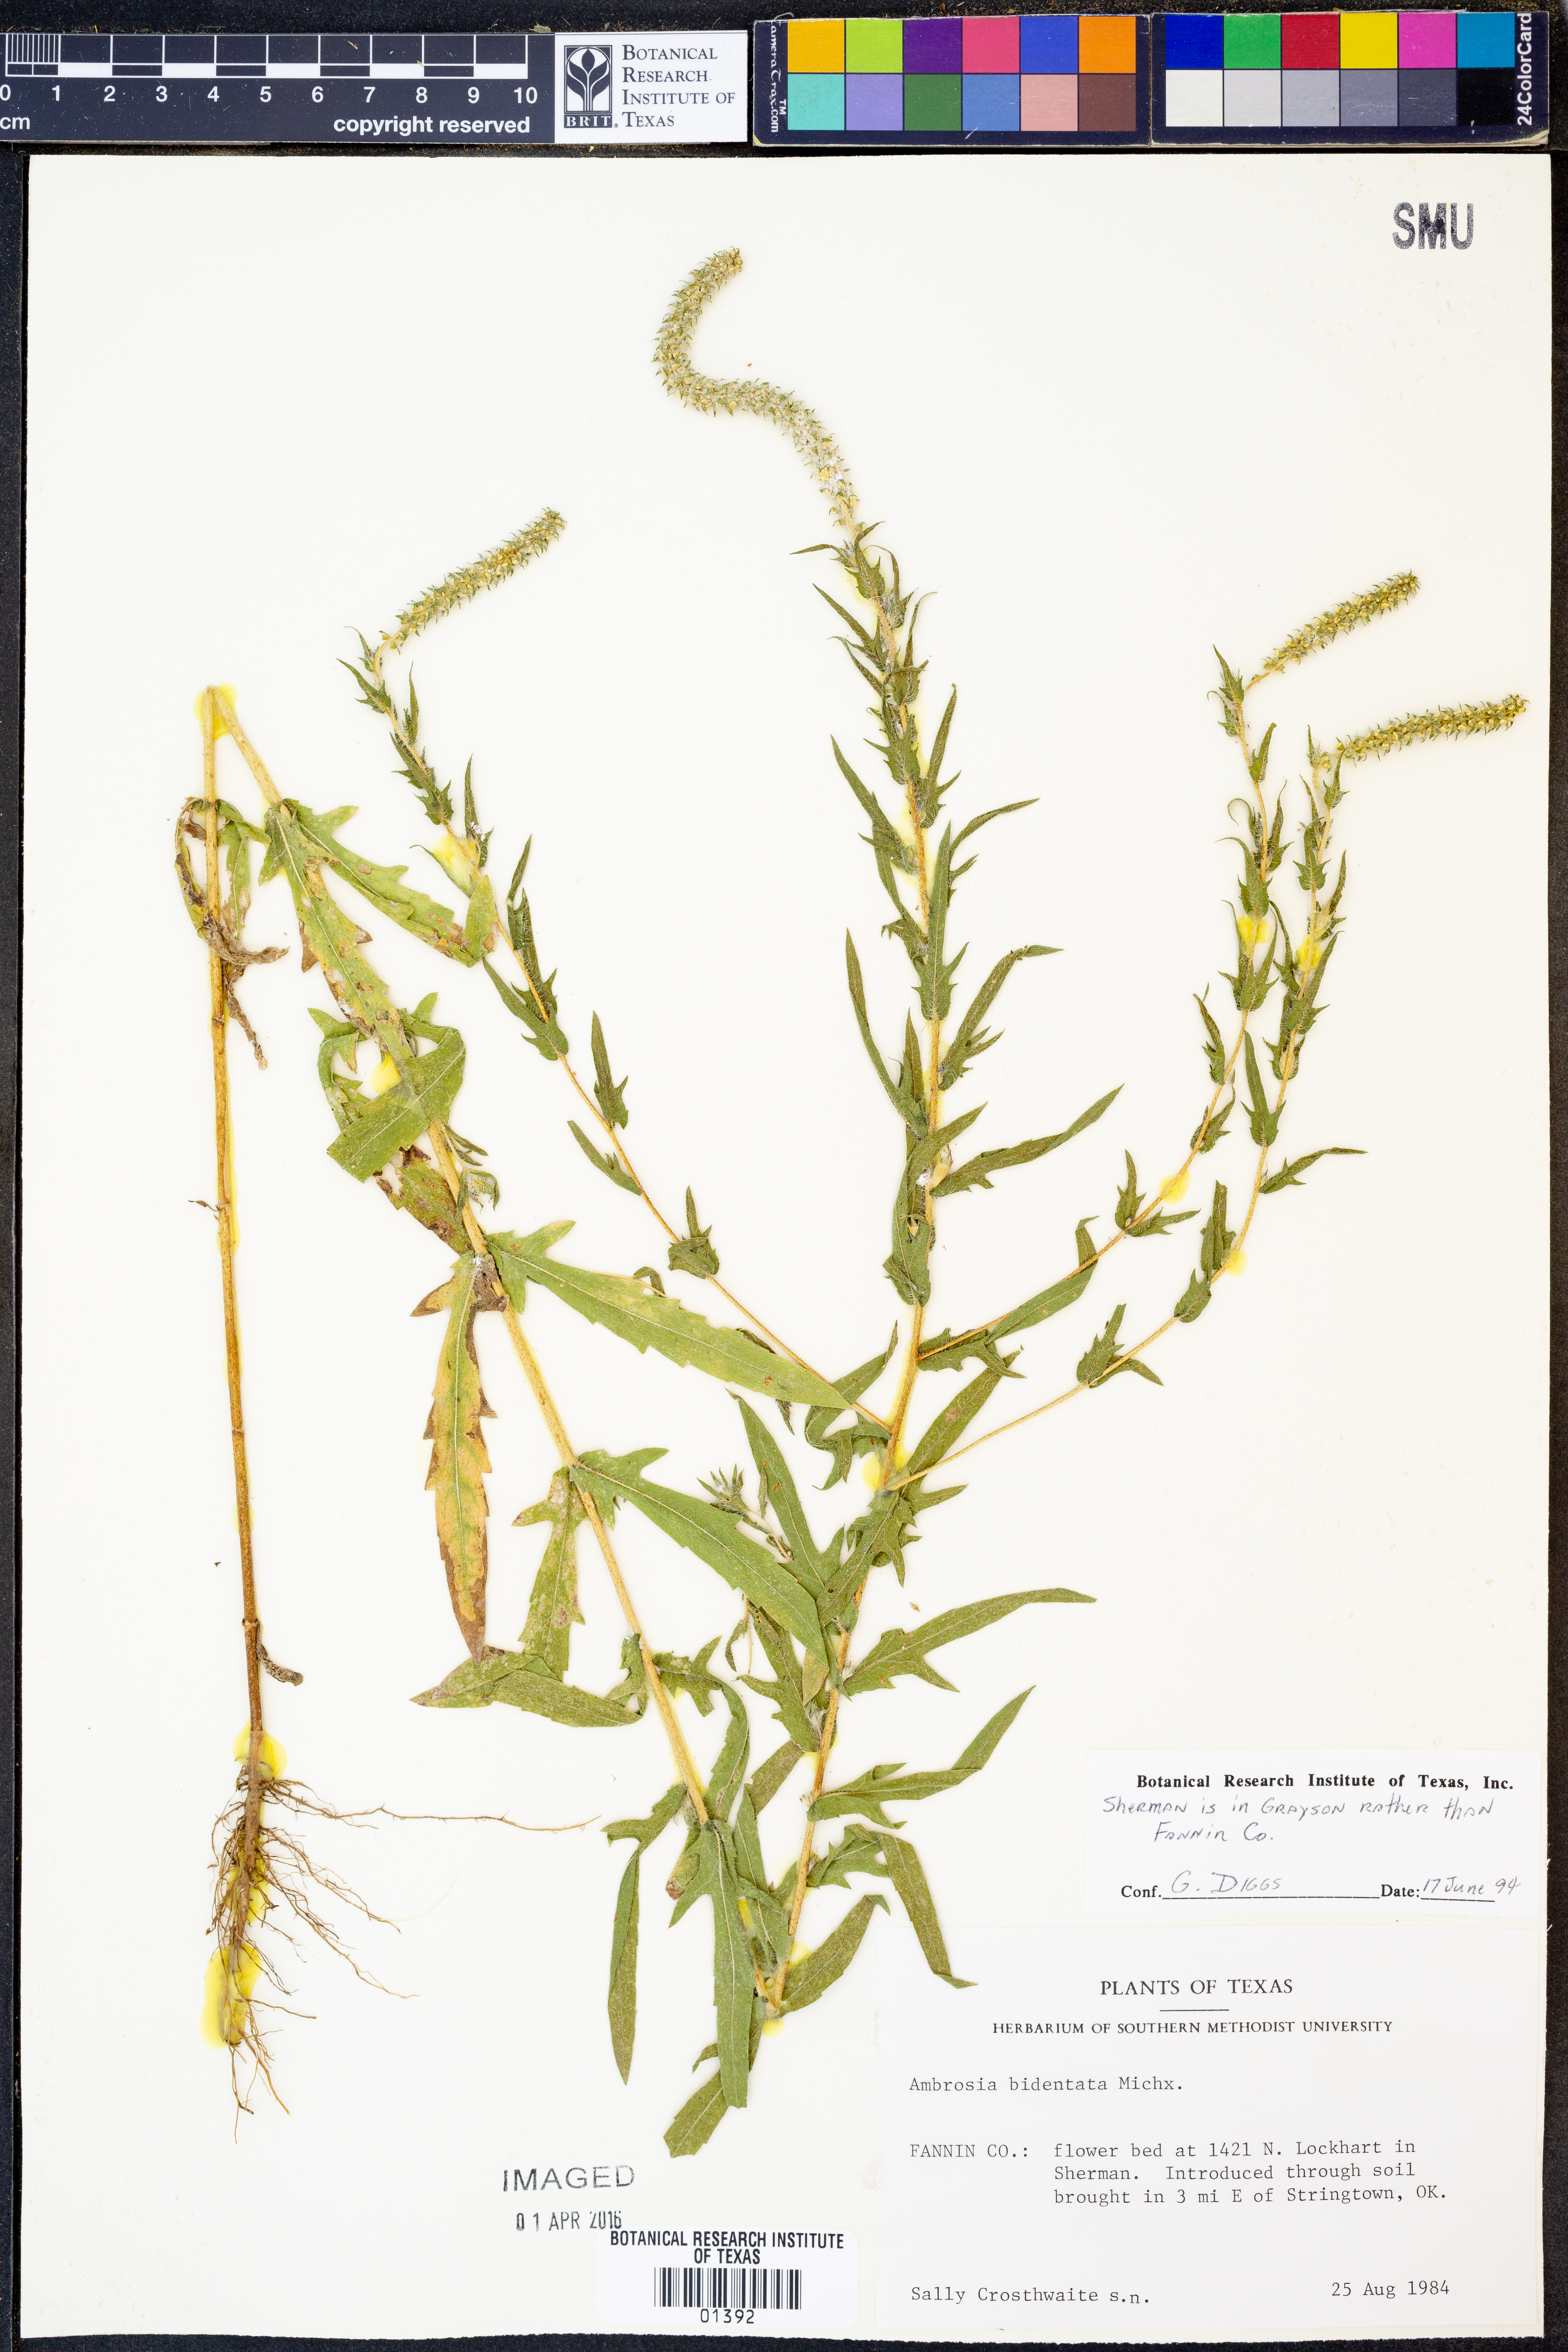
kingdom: Plantae
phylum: Tracheophyta
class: Magnoliopsida
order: Asterales
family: Asteraceae
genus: Ambrosia
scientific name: Ambrosia bidentata
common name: Southern ragweed
